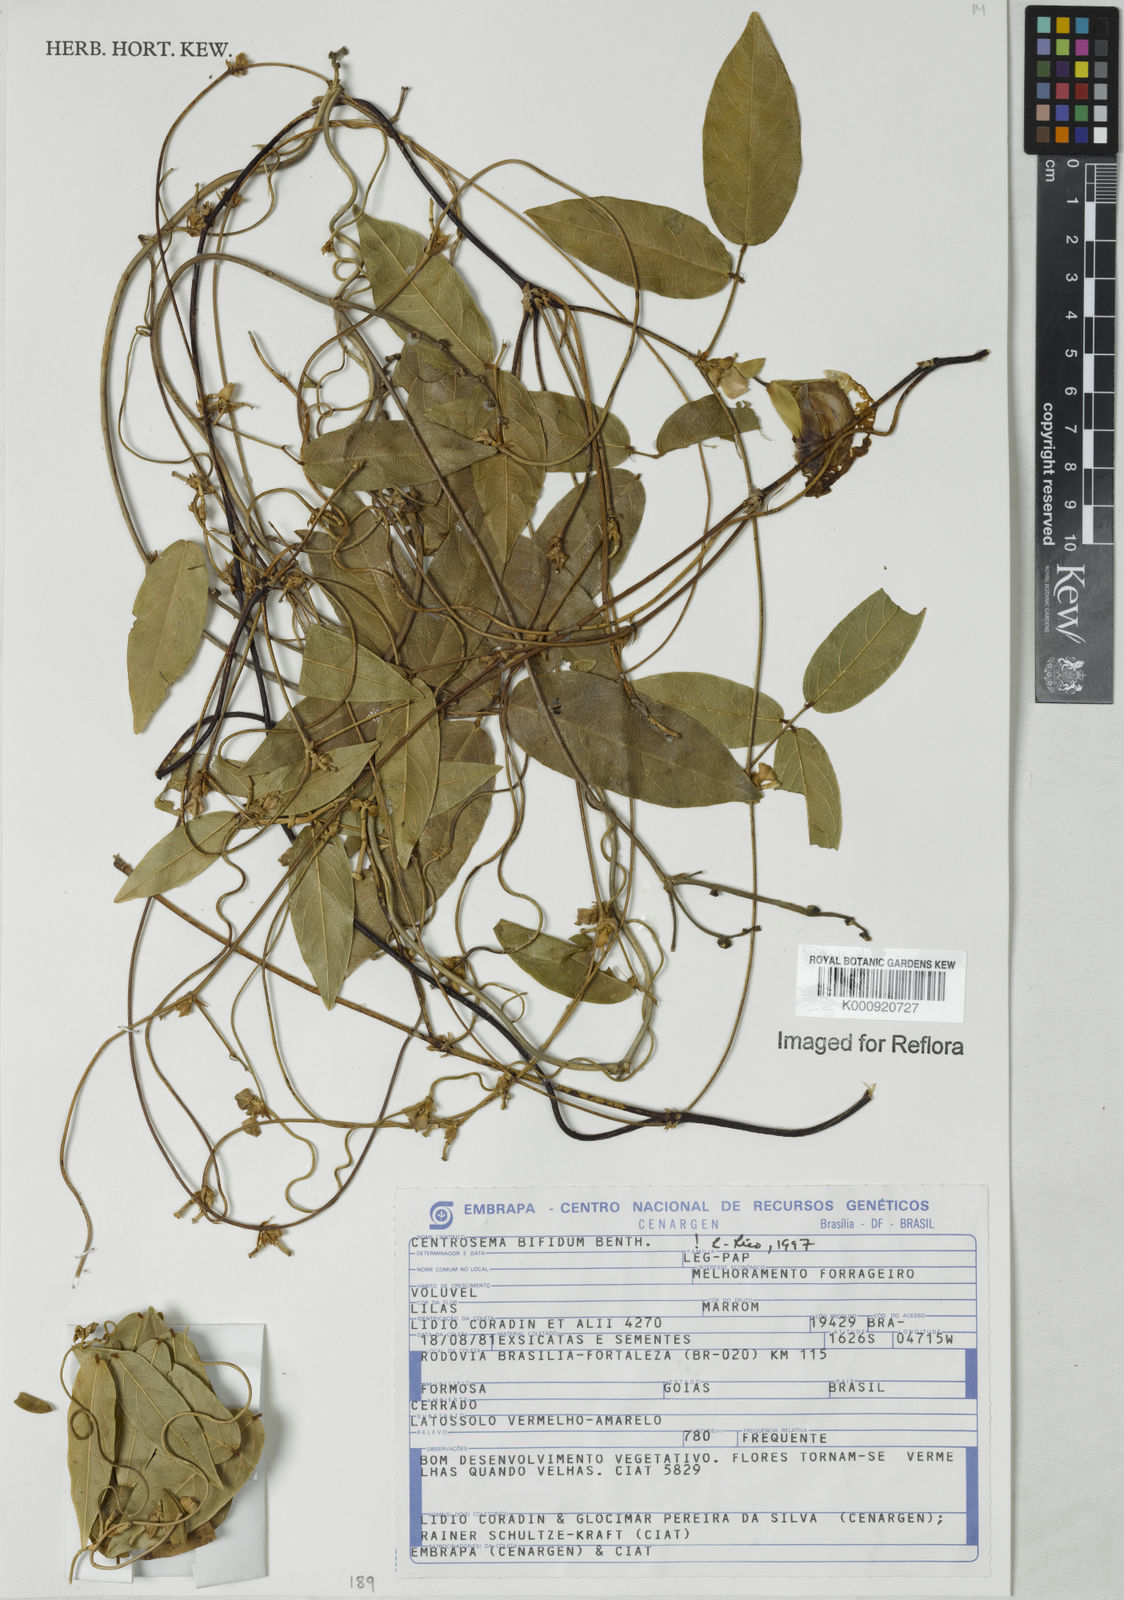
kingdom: Plantae
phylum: Tracheophyta
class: Magnoliopsida
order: Fabales
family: Fabaceae
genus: Centrosema
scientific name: Centrosema bifidum
